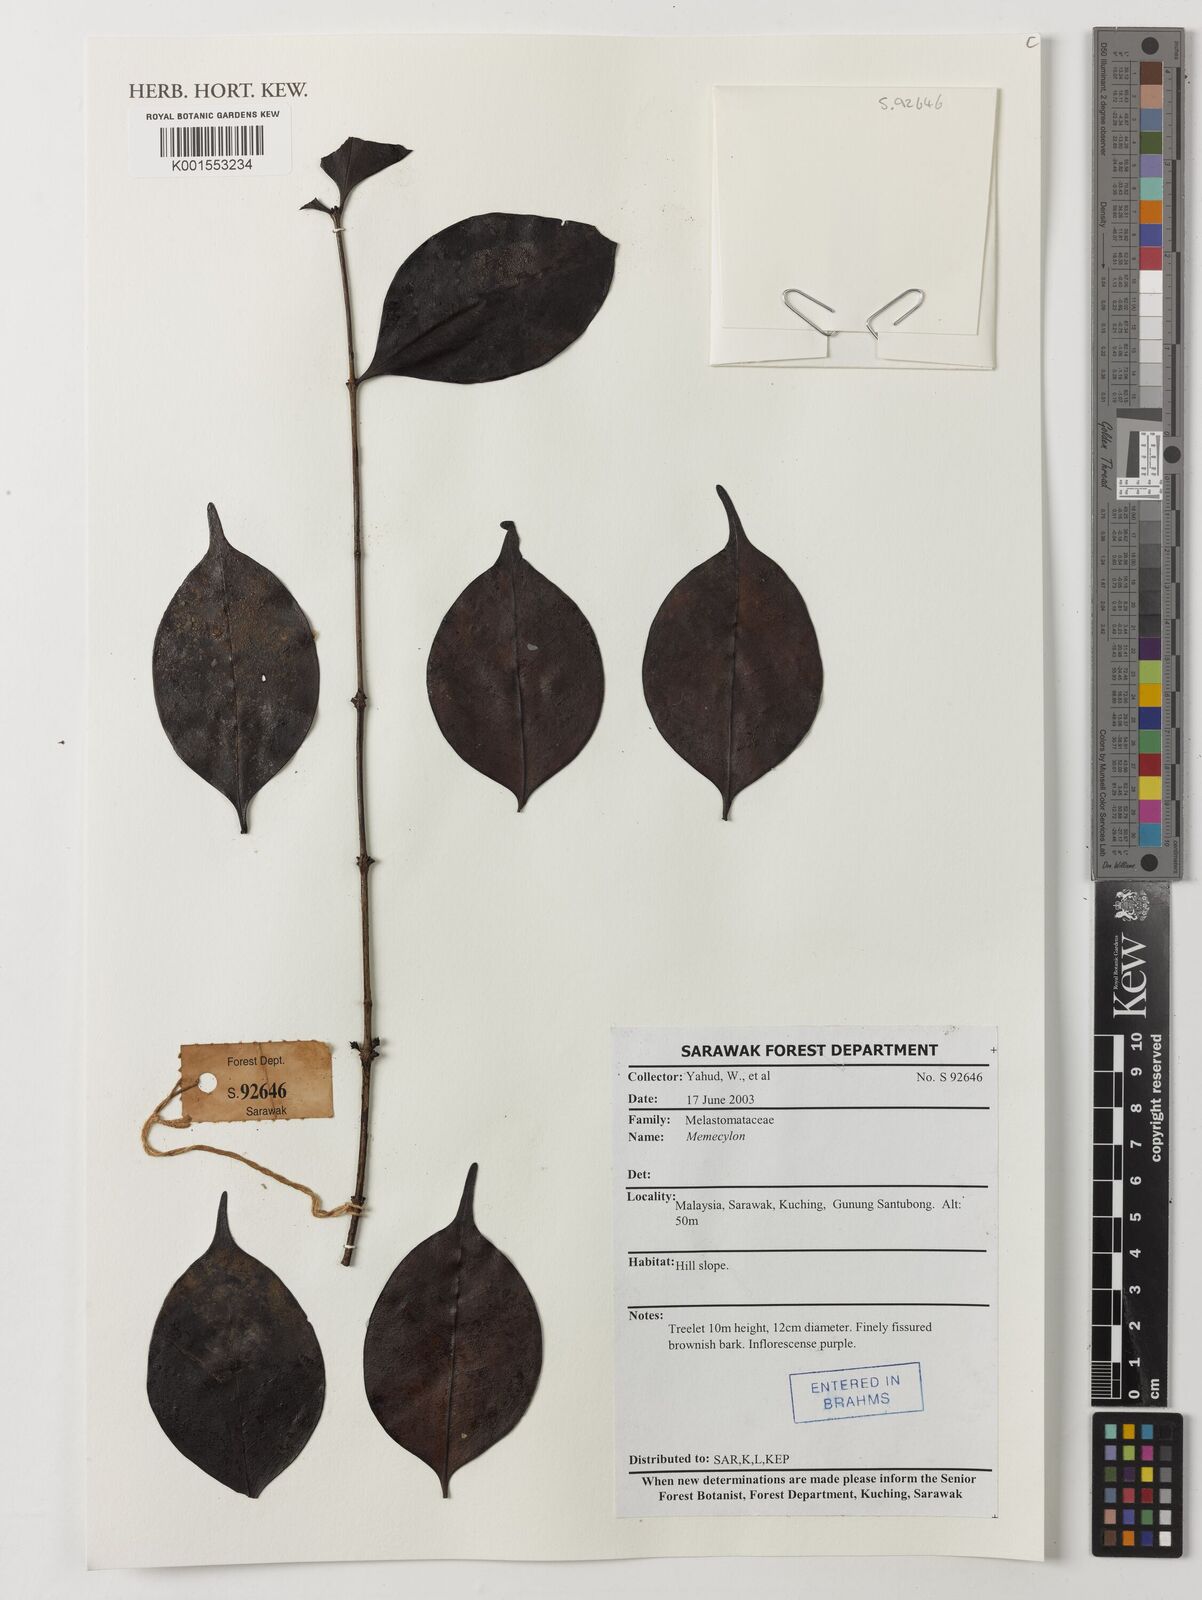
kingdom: Plantae
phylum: Tracheophyta
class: Magnoliopsida
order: Myrtales
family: Melastomataceae
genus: Memecylon
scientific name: Memecylon
